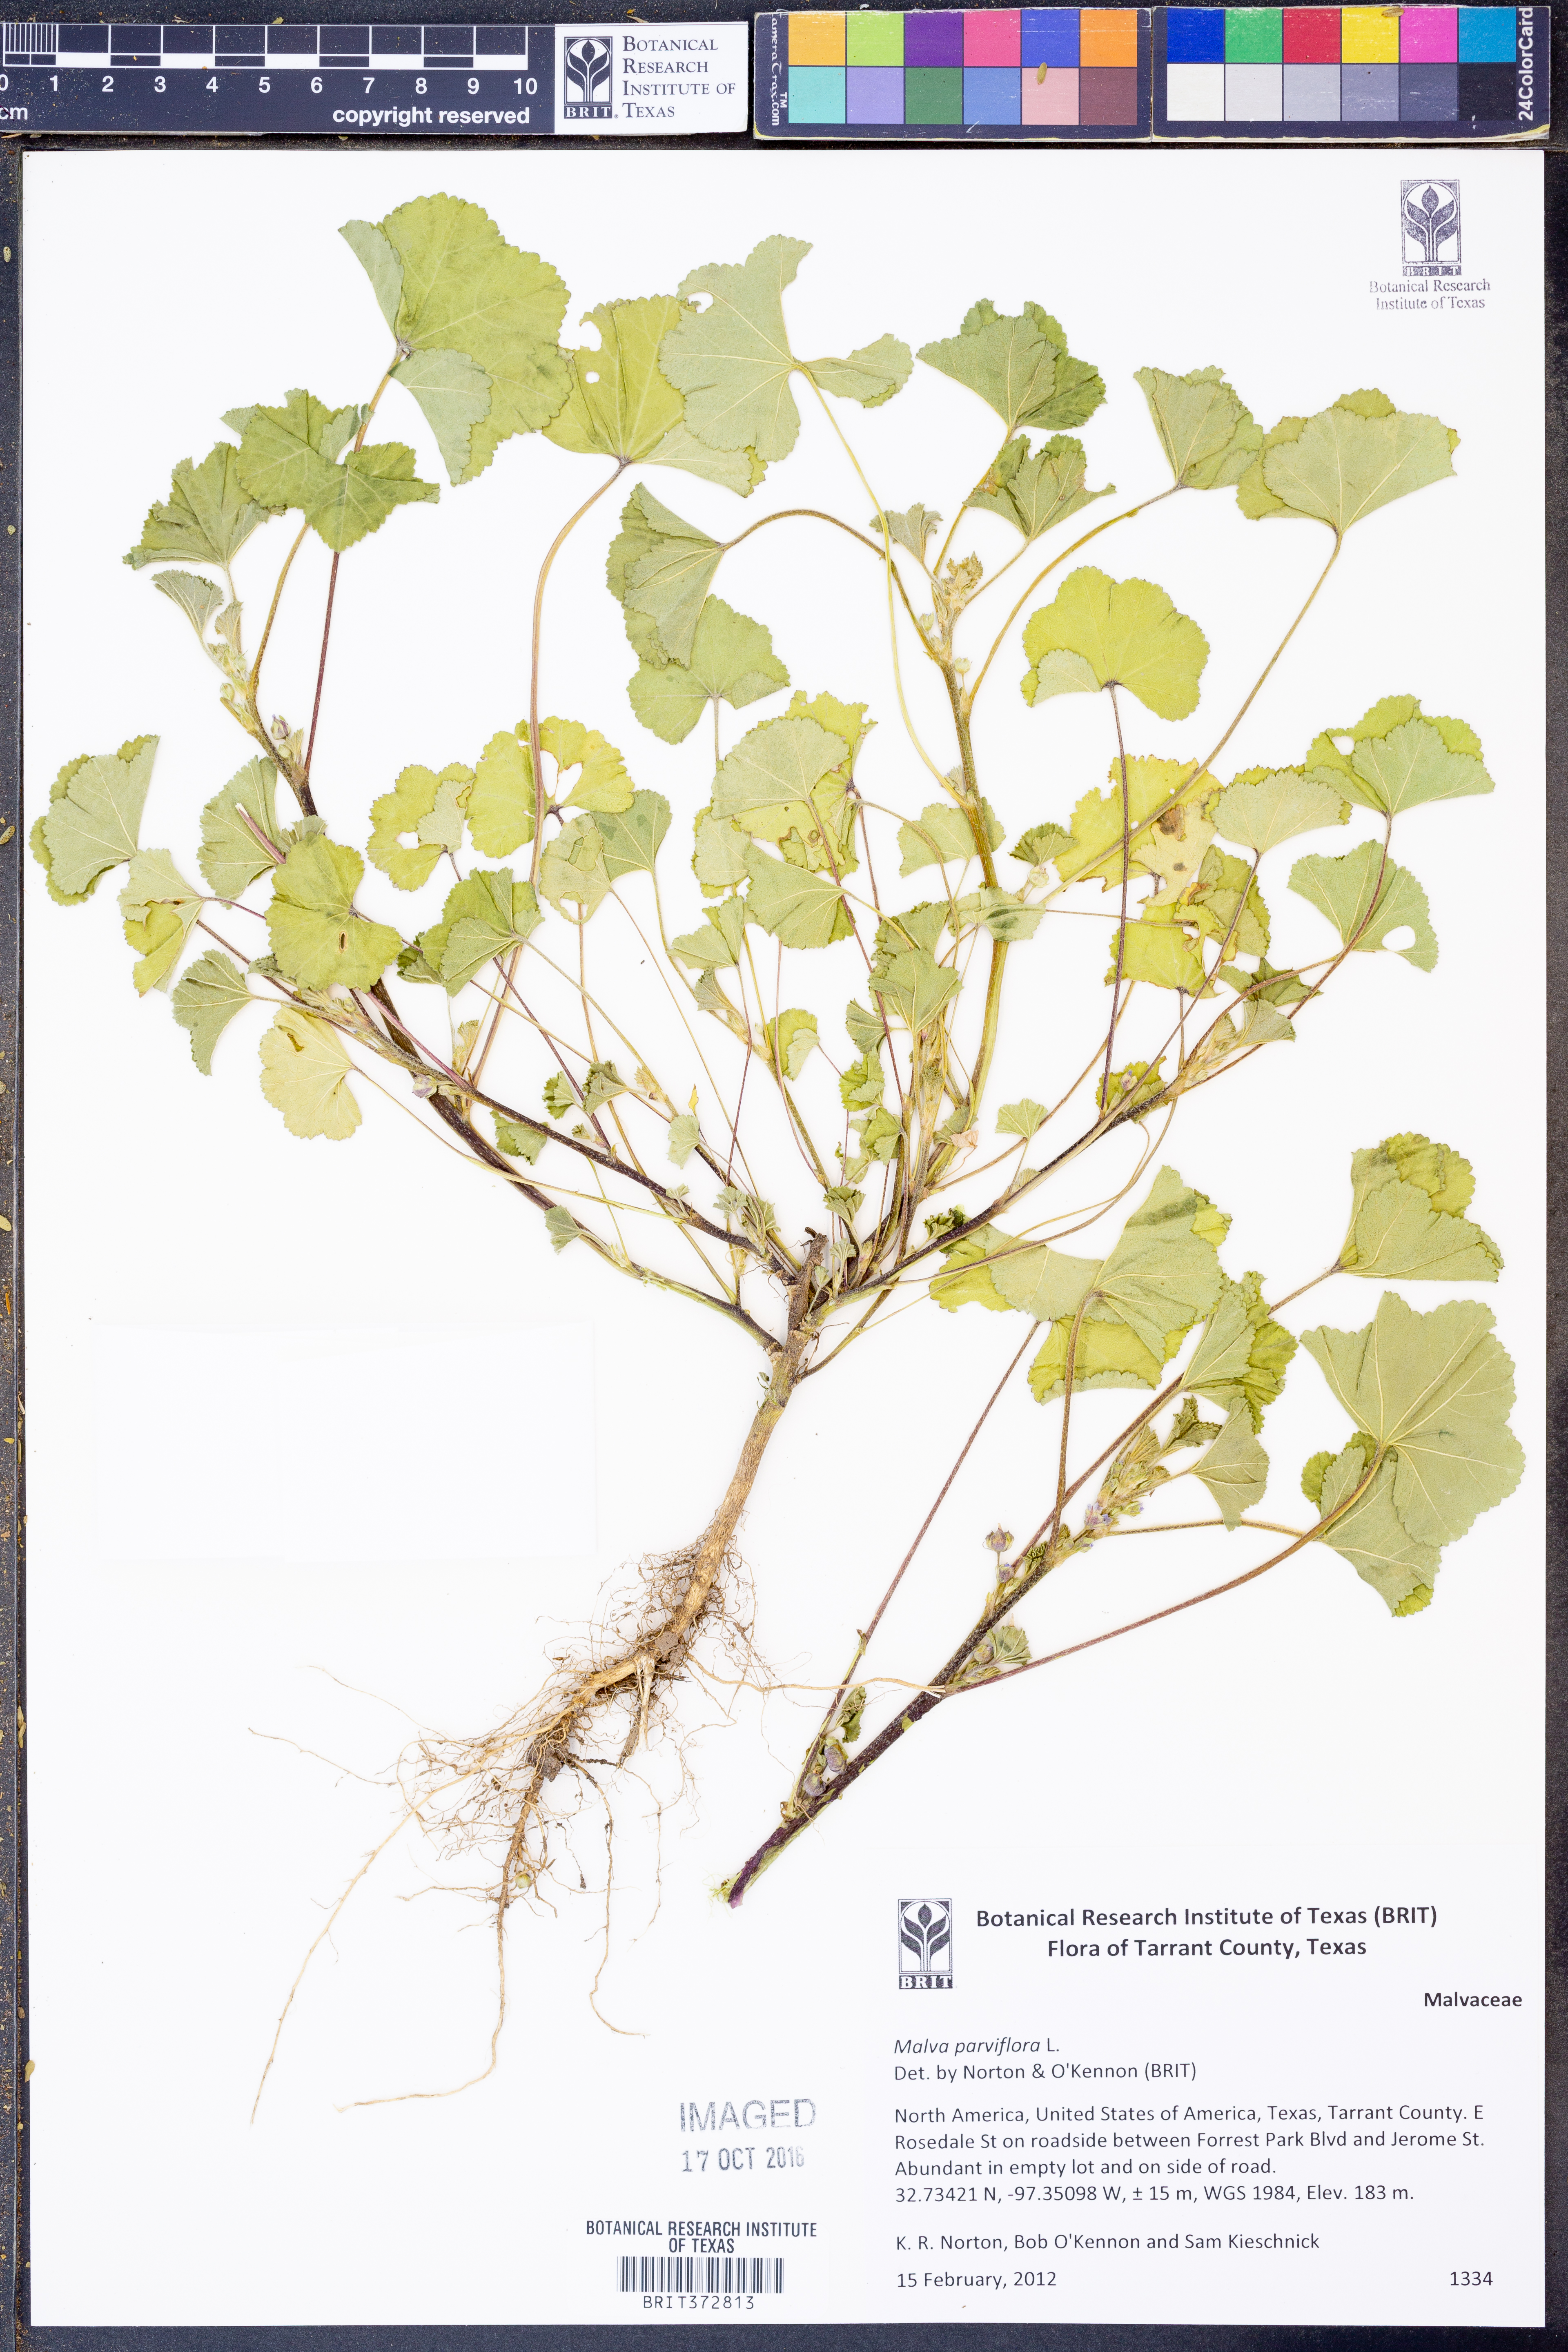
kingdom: Plantae
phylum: Tracheophyta
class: Magnoliopsida
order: Malvales
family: Malvaceae
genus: Malva
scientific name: Malva parviflora
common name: Least mallow
